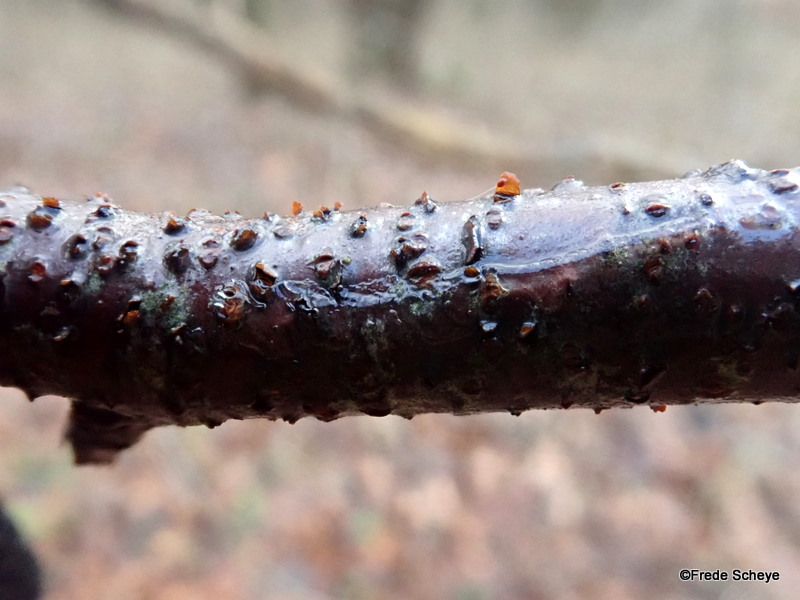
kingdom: Fungi
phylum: Ascomycota
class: Dothideomycetes
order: Pleosporales
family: Pleomassariaceae
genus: Asteromassaria
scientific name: Asteromassaria macrospora
